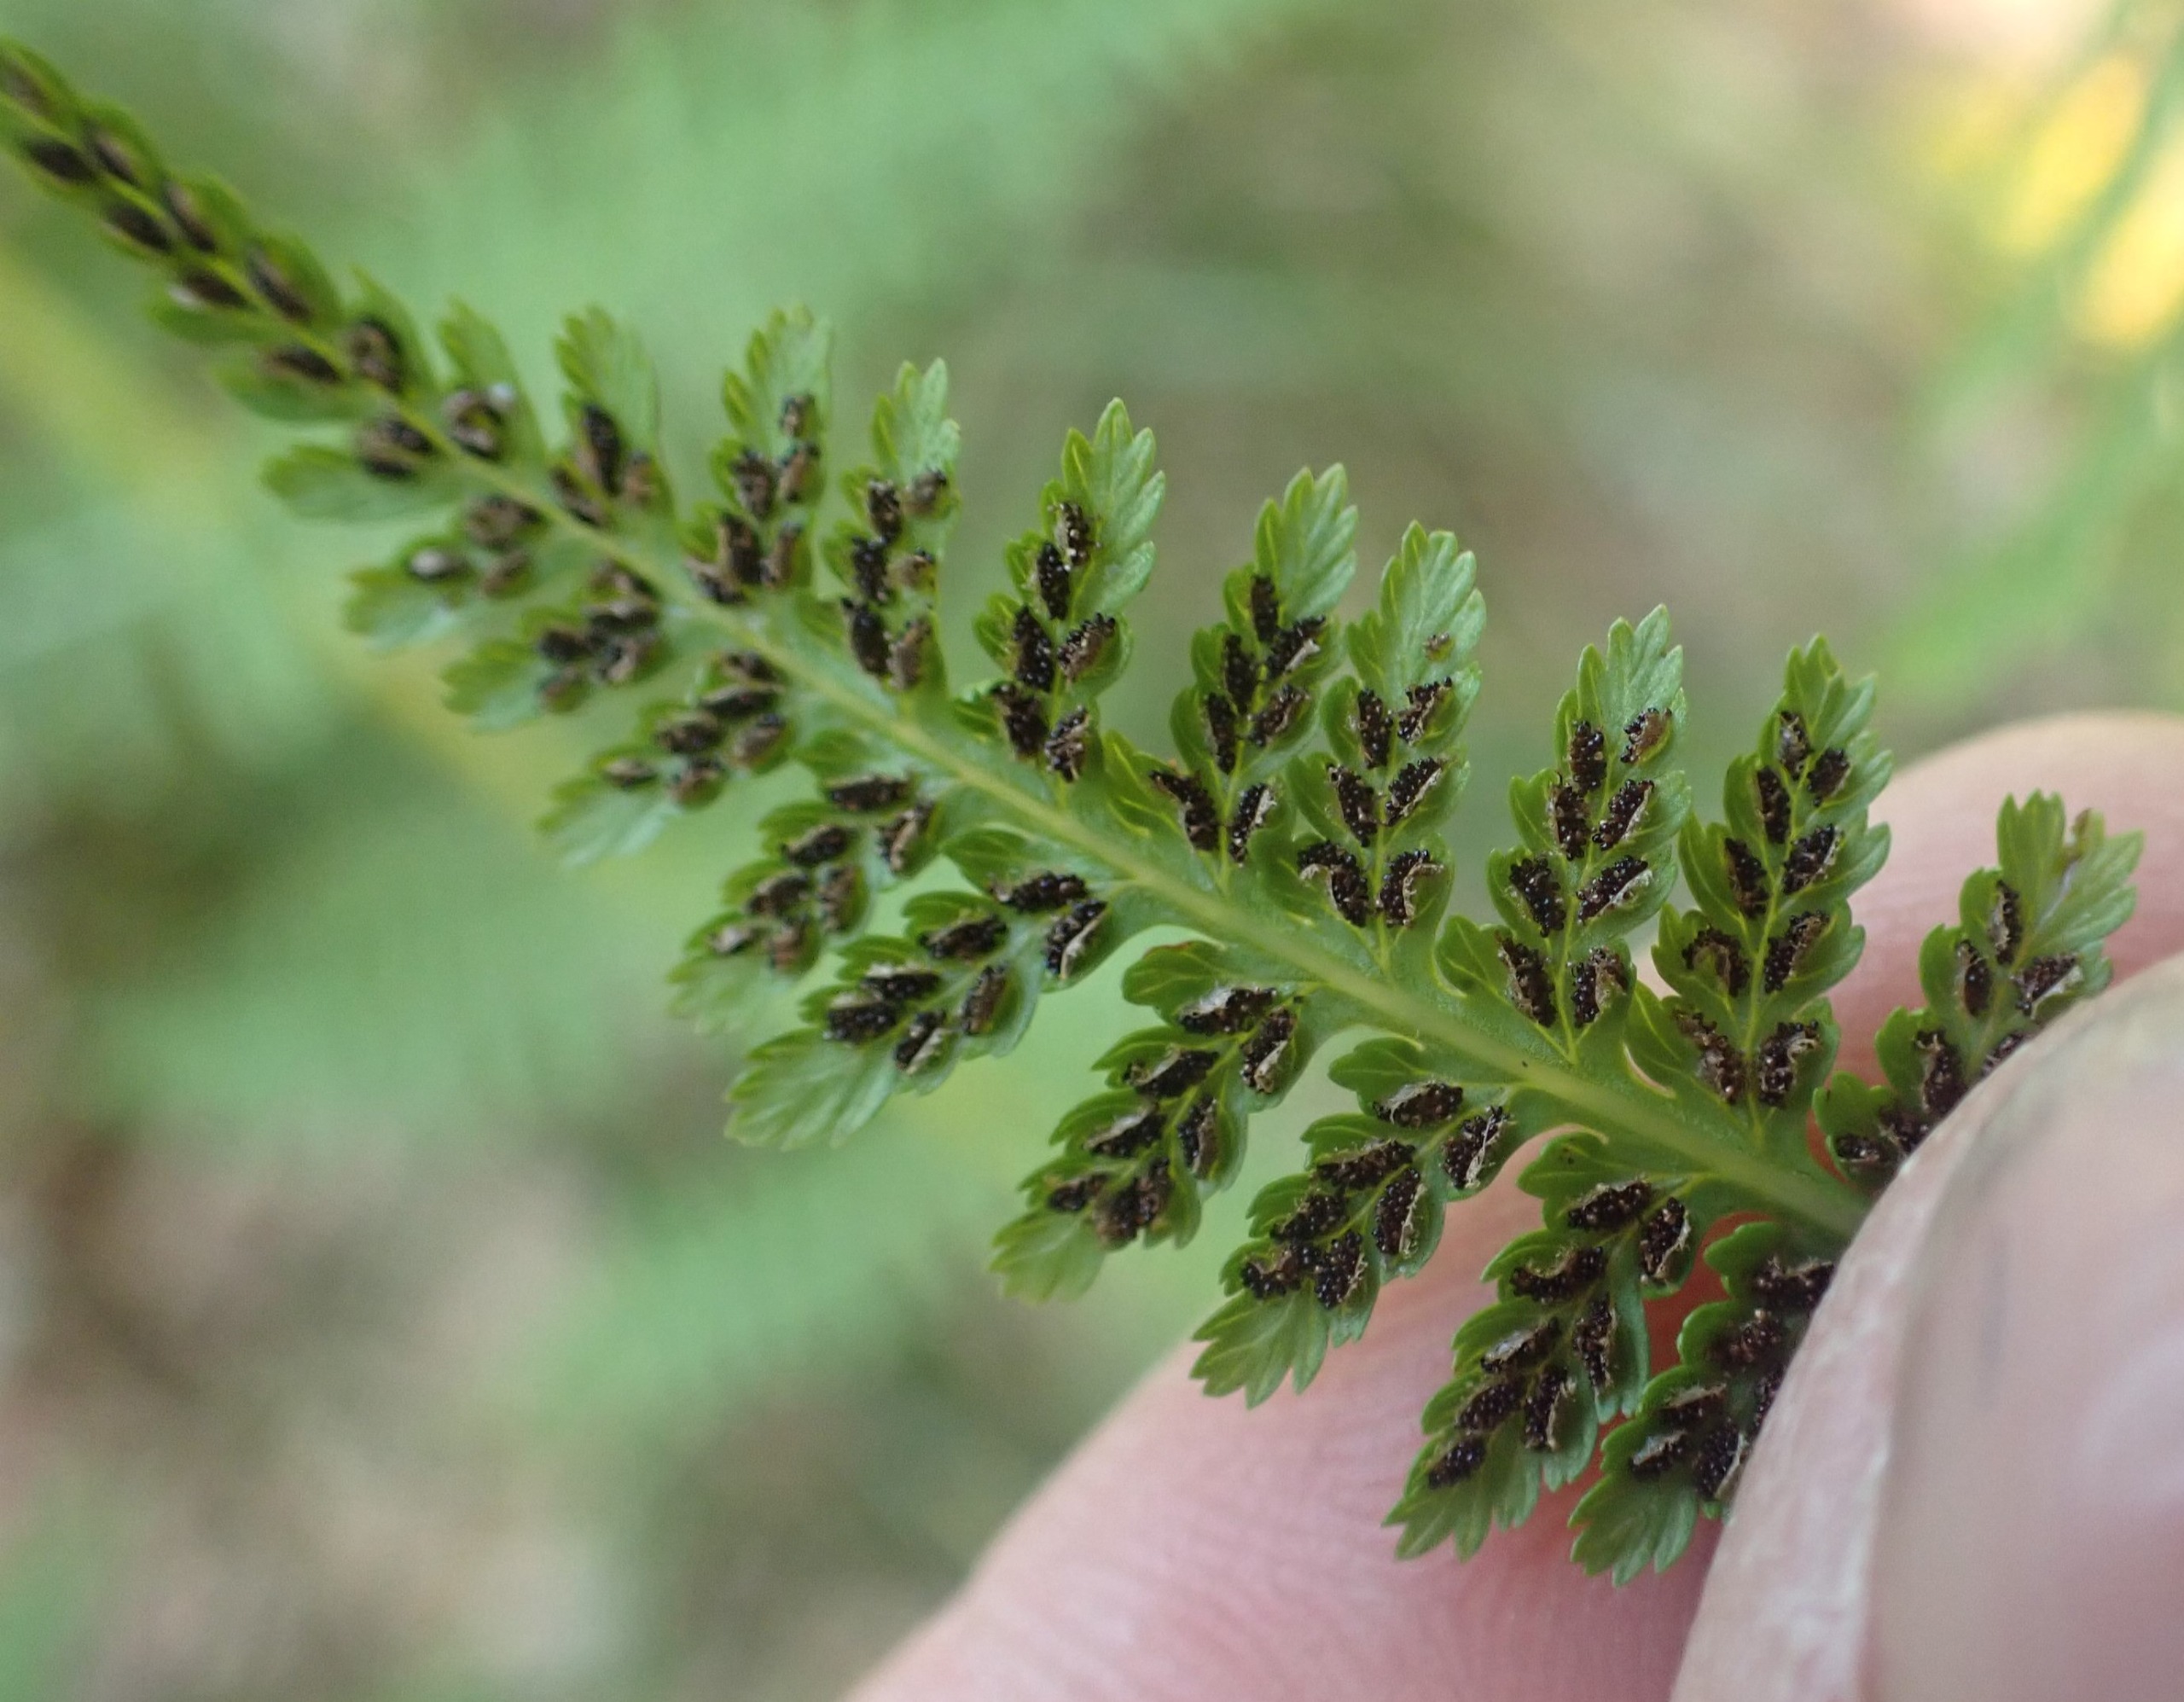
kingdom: Plantae
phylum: Tracheophyta
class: Polypodiopsida
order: Polypodiales
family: Athyriaceae
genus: Athyrium
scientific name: Athyrium filix-femina
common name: Fjerbregne
